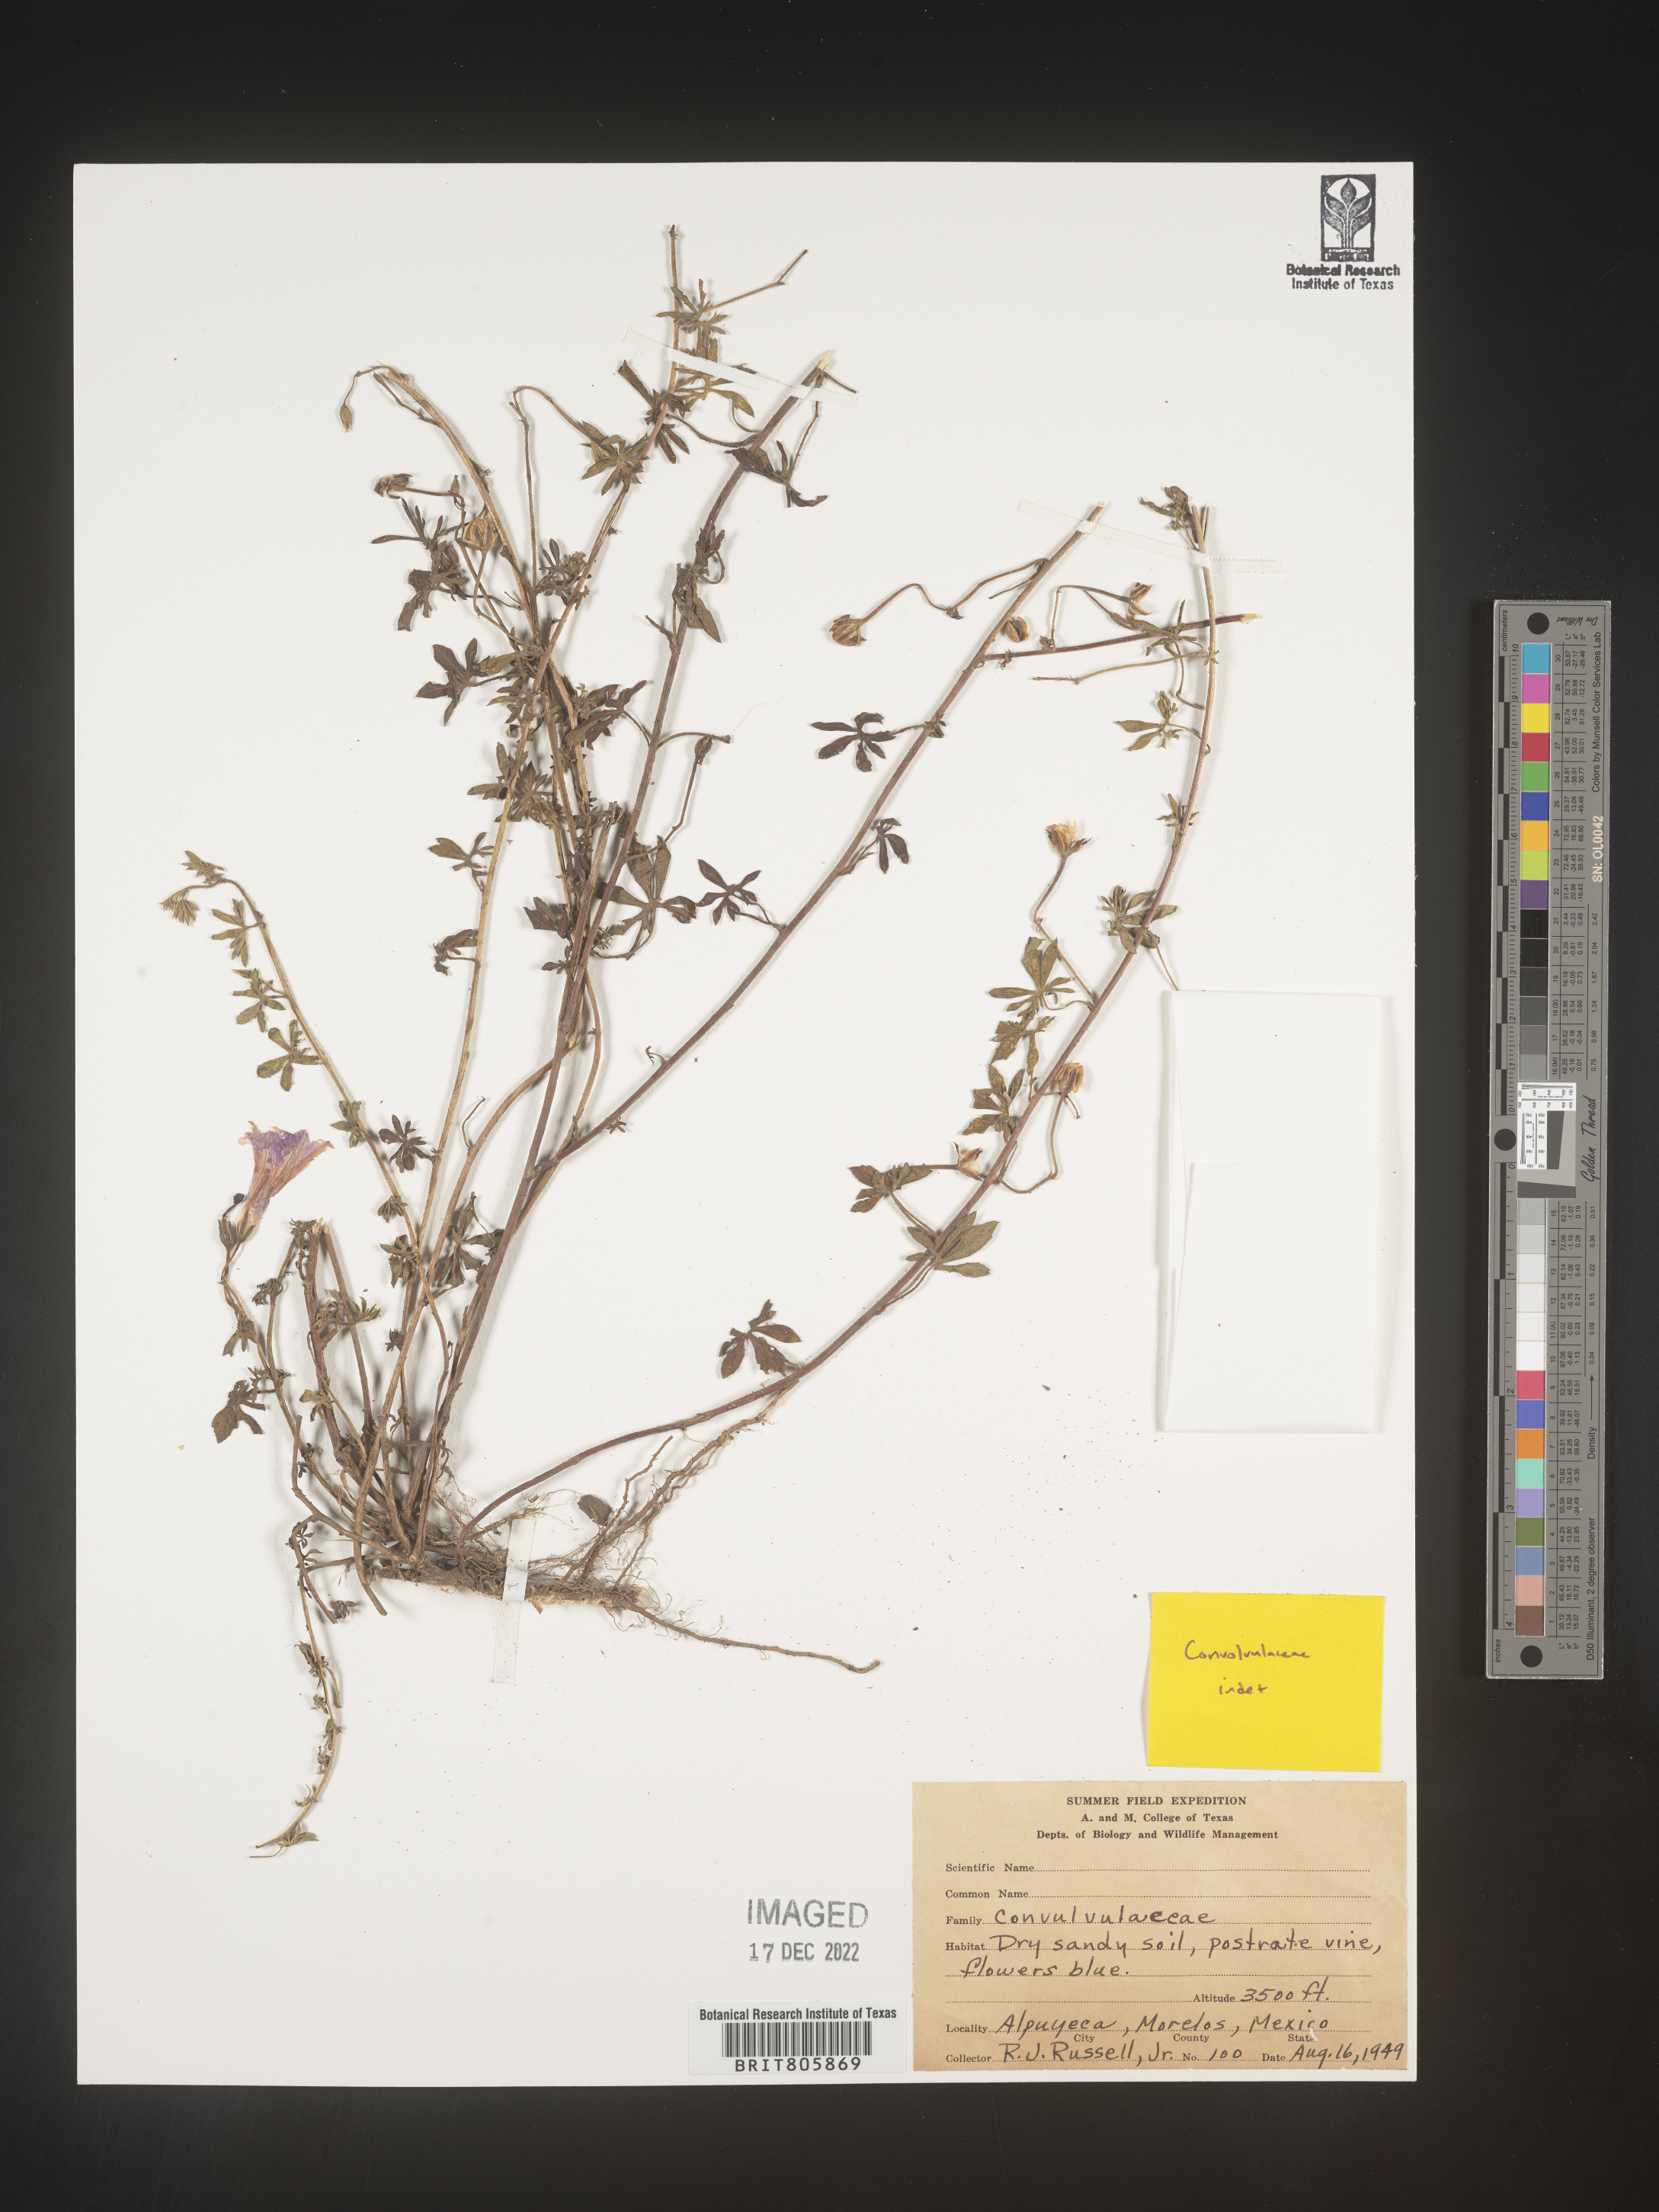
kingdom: Plantae
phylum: Tracheophyta
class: Magnoliopsida
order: Solanales
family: Convolvulaceae
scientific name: Convolvulaceae
